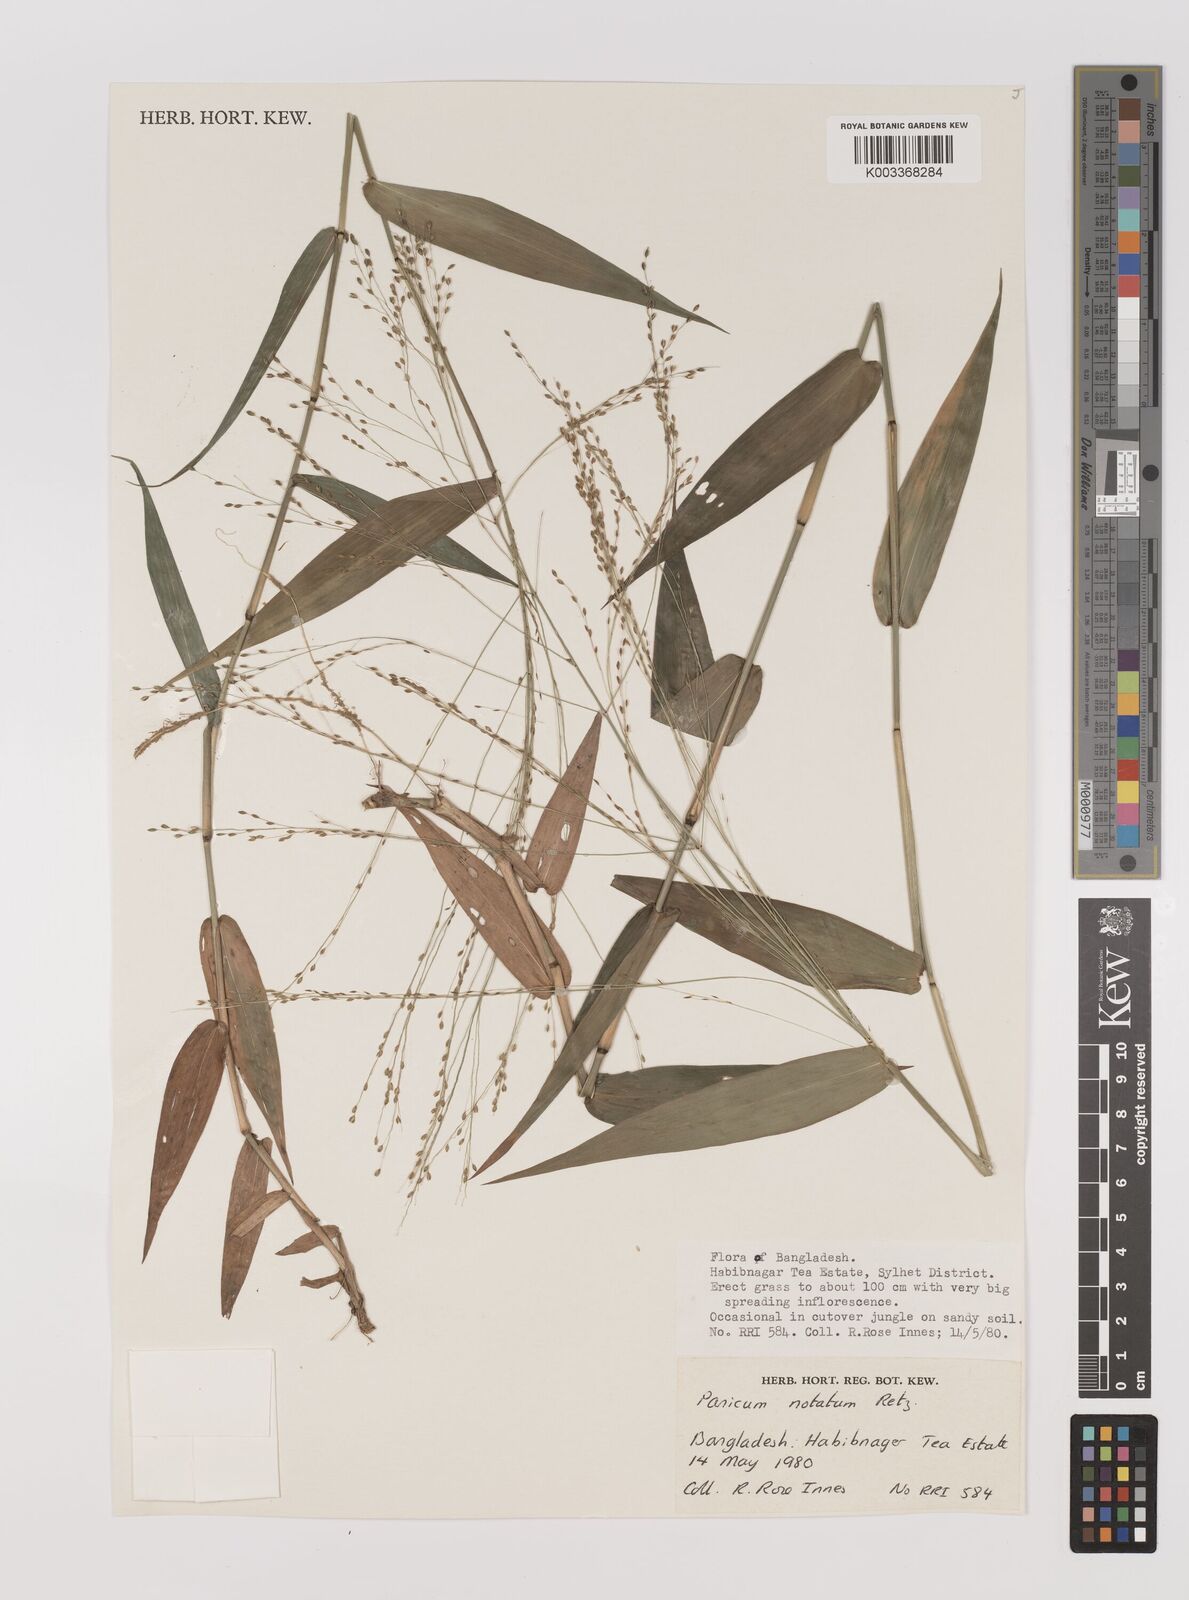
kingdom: Plantae
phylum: Tracheophyta
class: Liliopsida
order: Poales
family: Poaceae
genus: Panicum
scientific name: Panicum notatum
